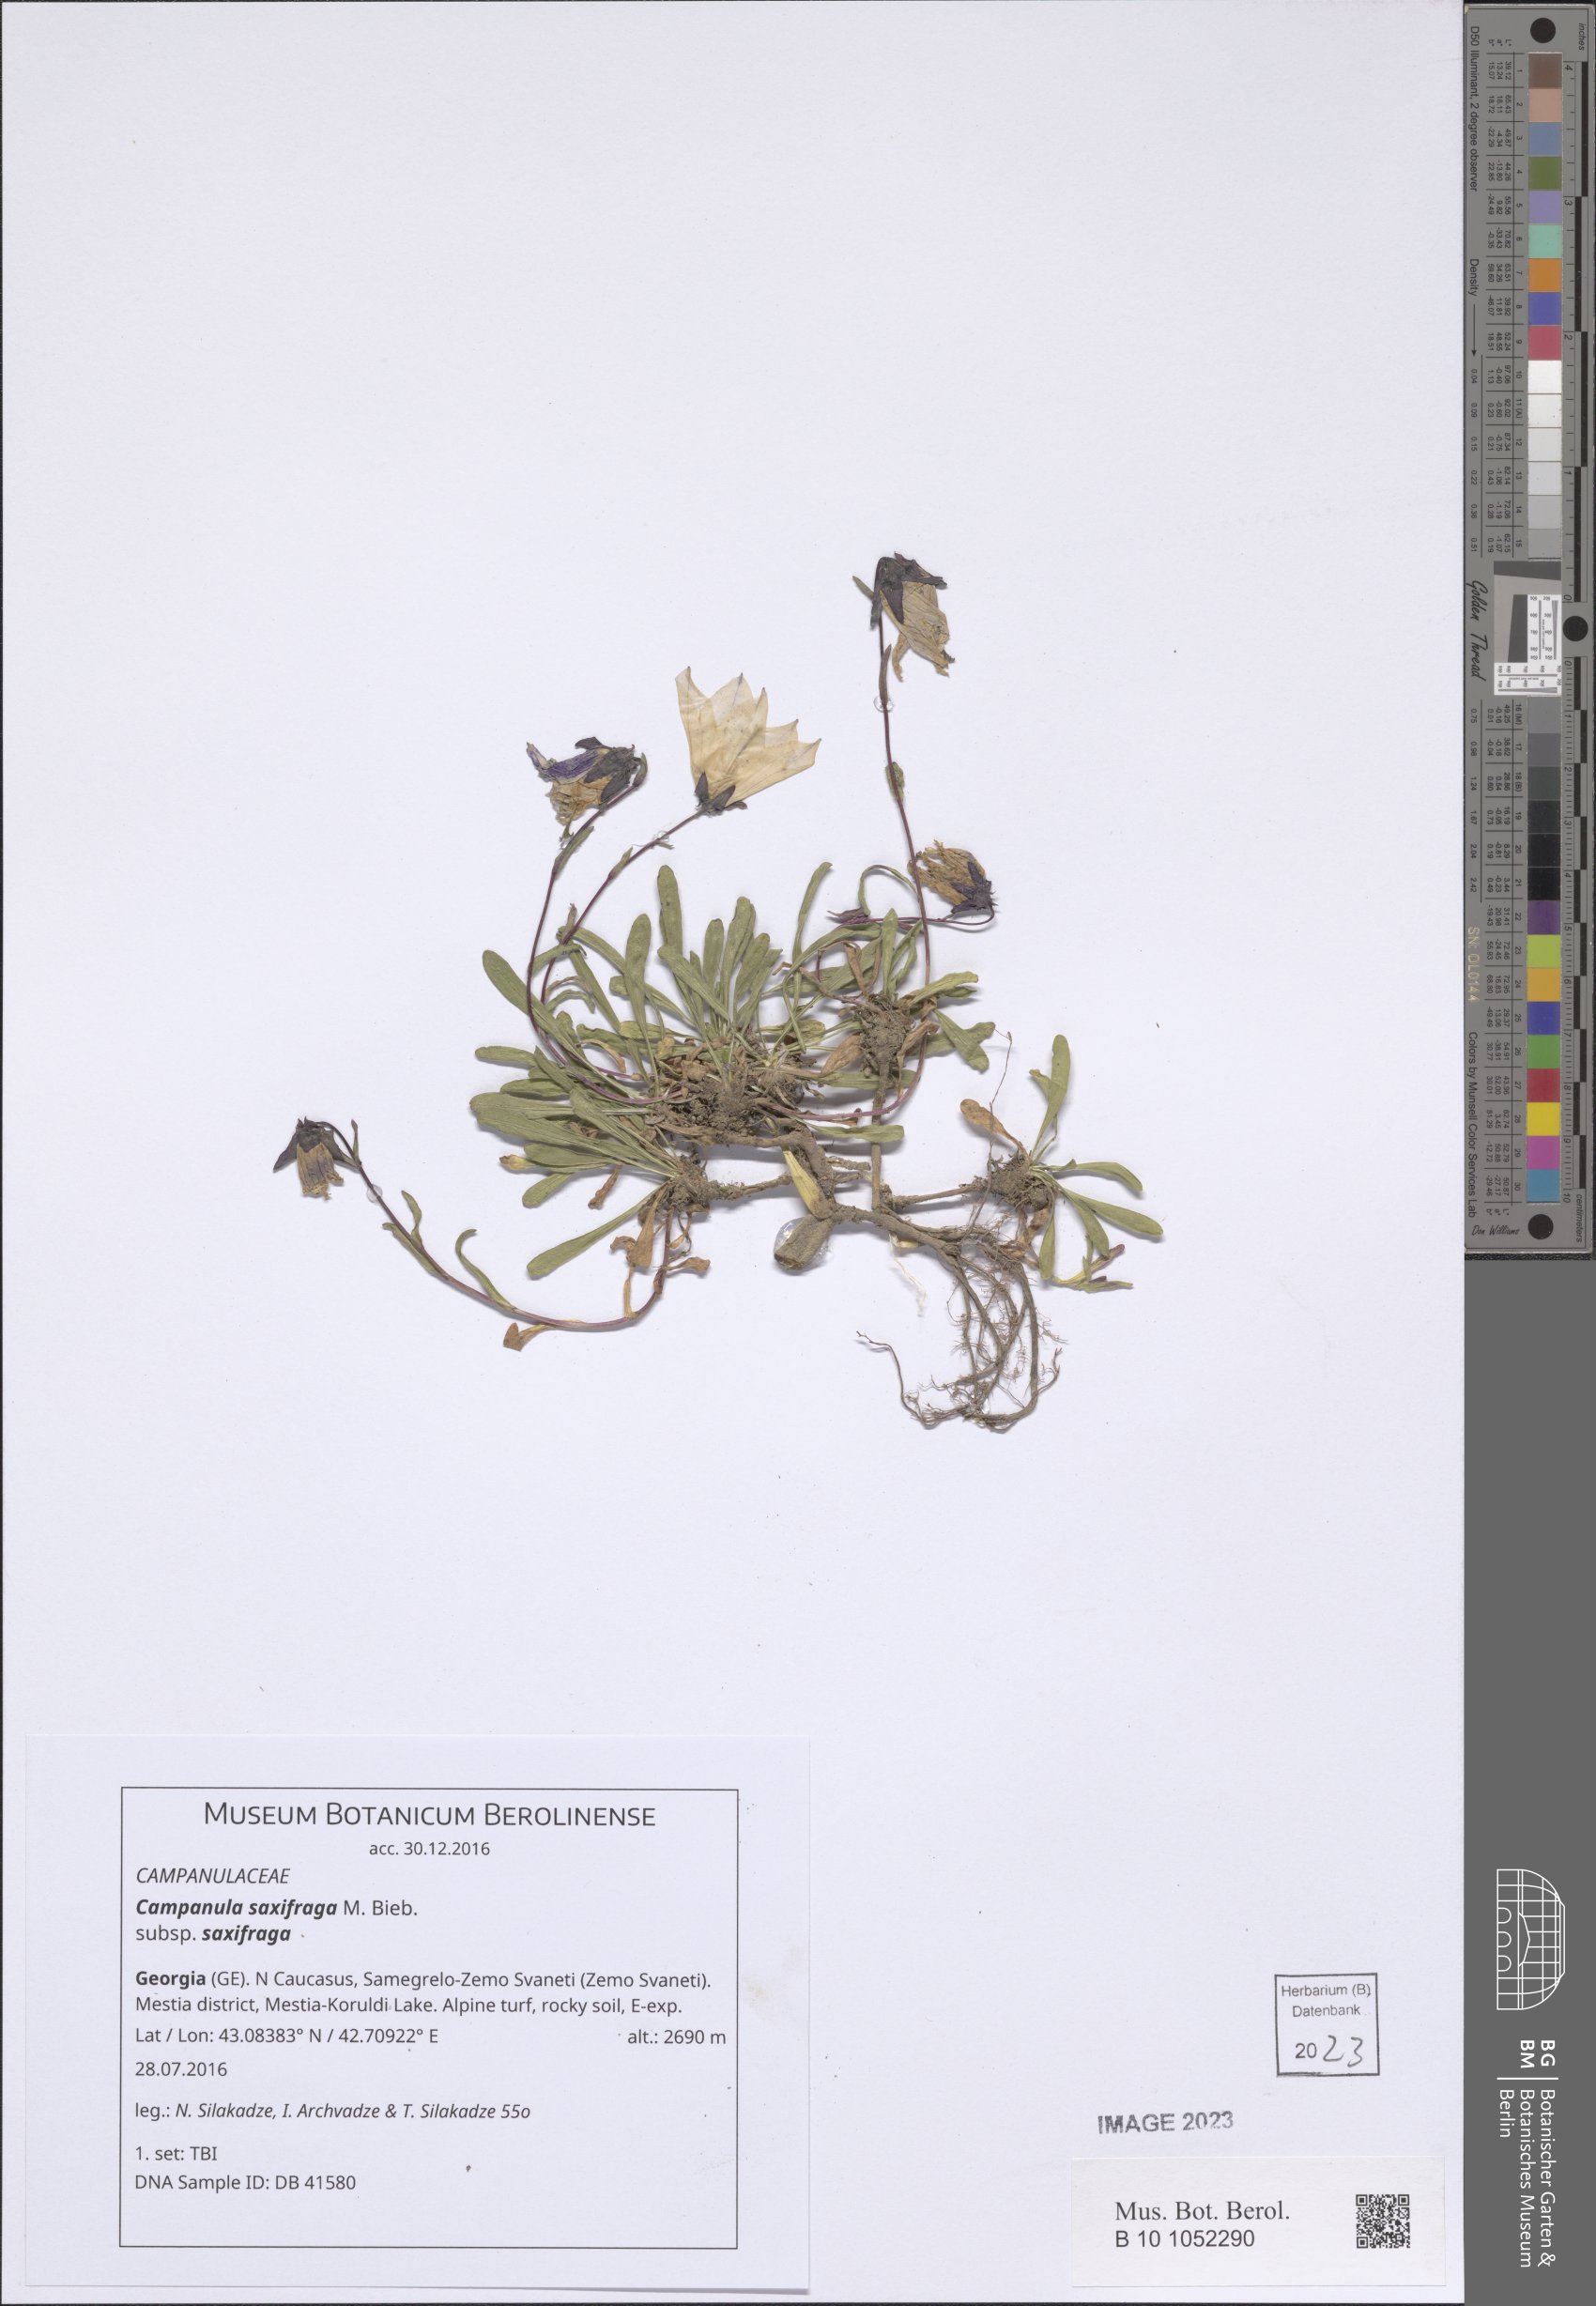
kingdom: Plantae
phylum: Tracheophyta
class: Magnoliopsida
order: Asterales
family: Campanulaceae
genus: Campanula
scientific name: Campanula saxifraga
